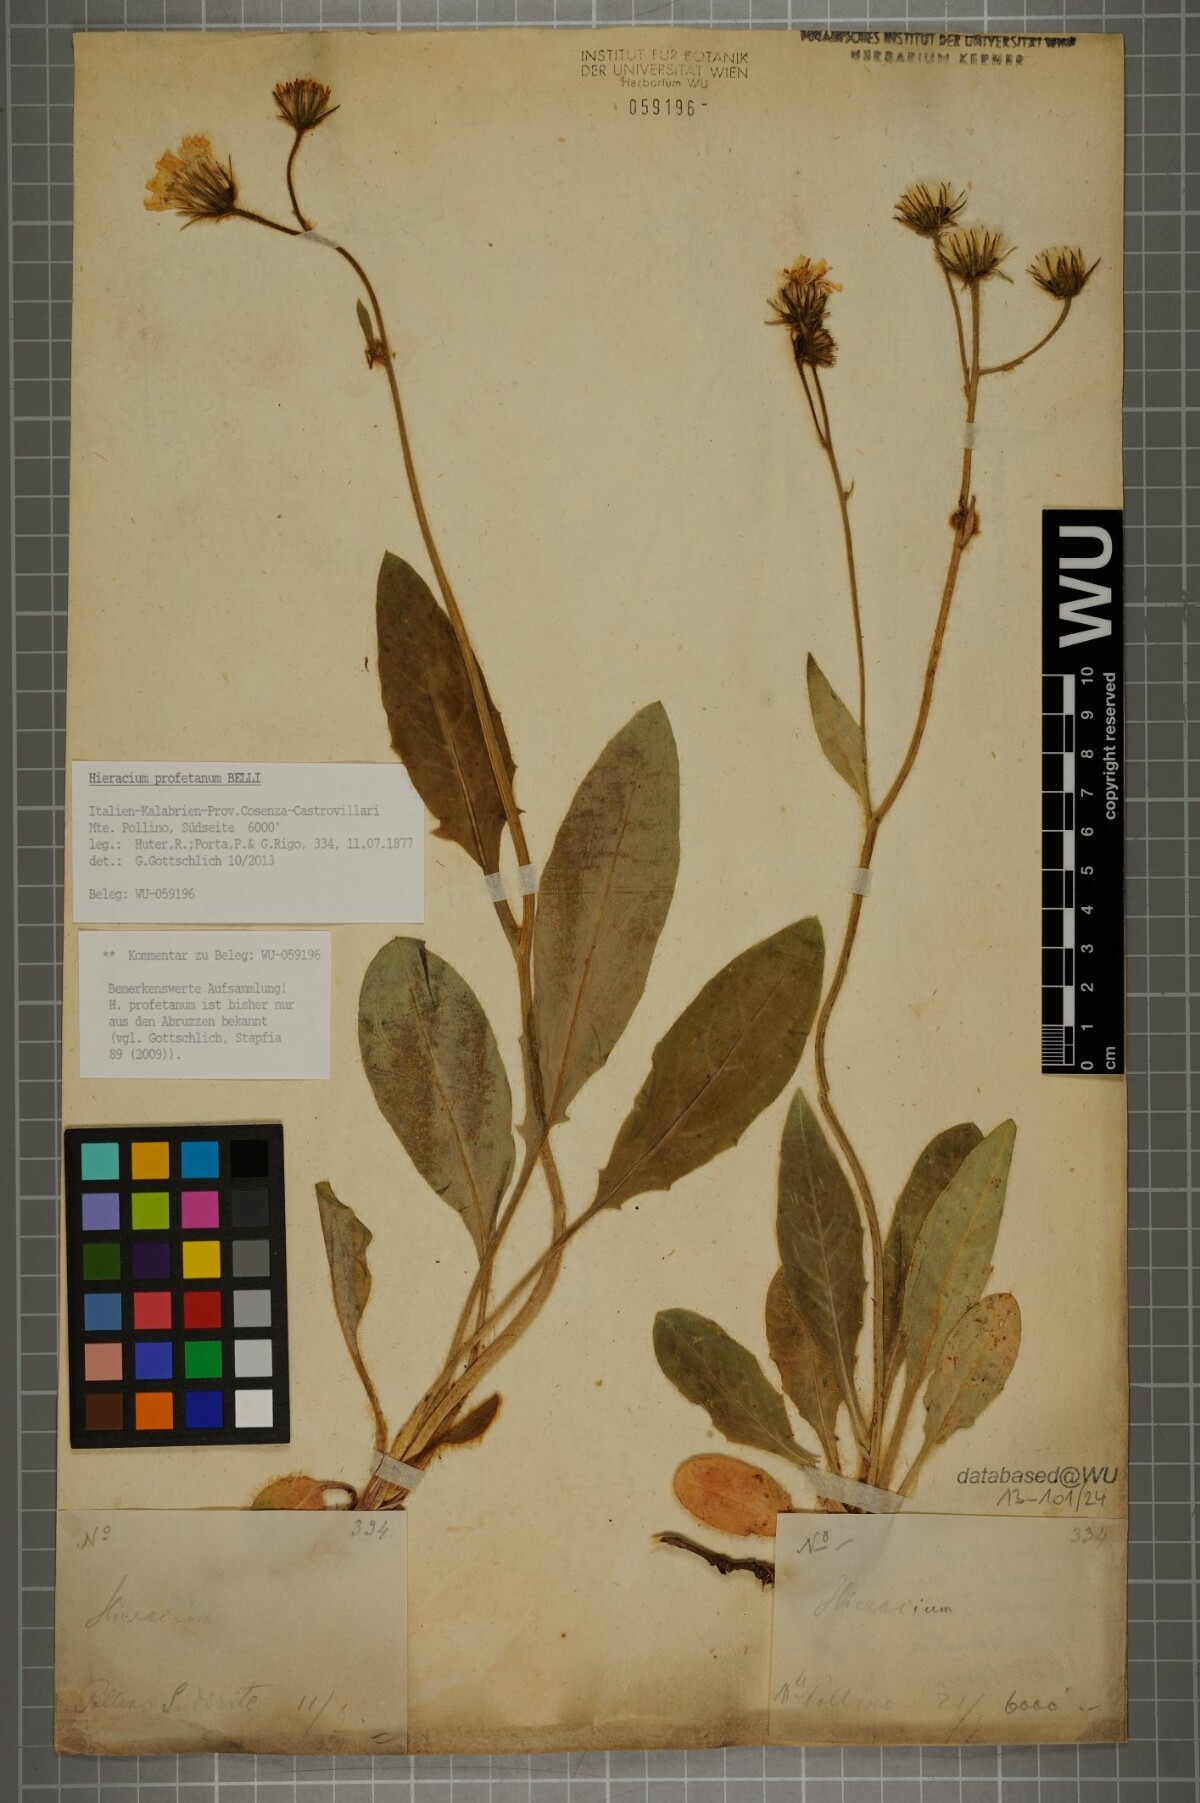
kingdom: Plantae
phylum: Tracheophyta
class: Magnoliopsida
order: Asterales
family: Asteraceae
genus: Hieracium
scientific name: Hieracium profetanum
